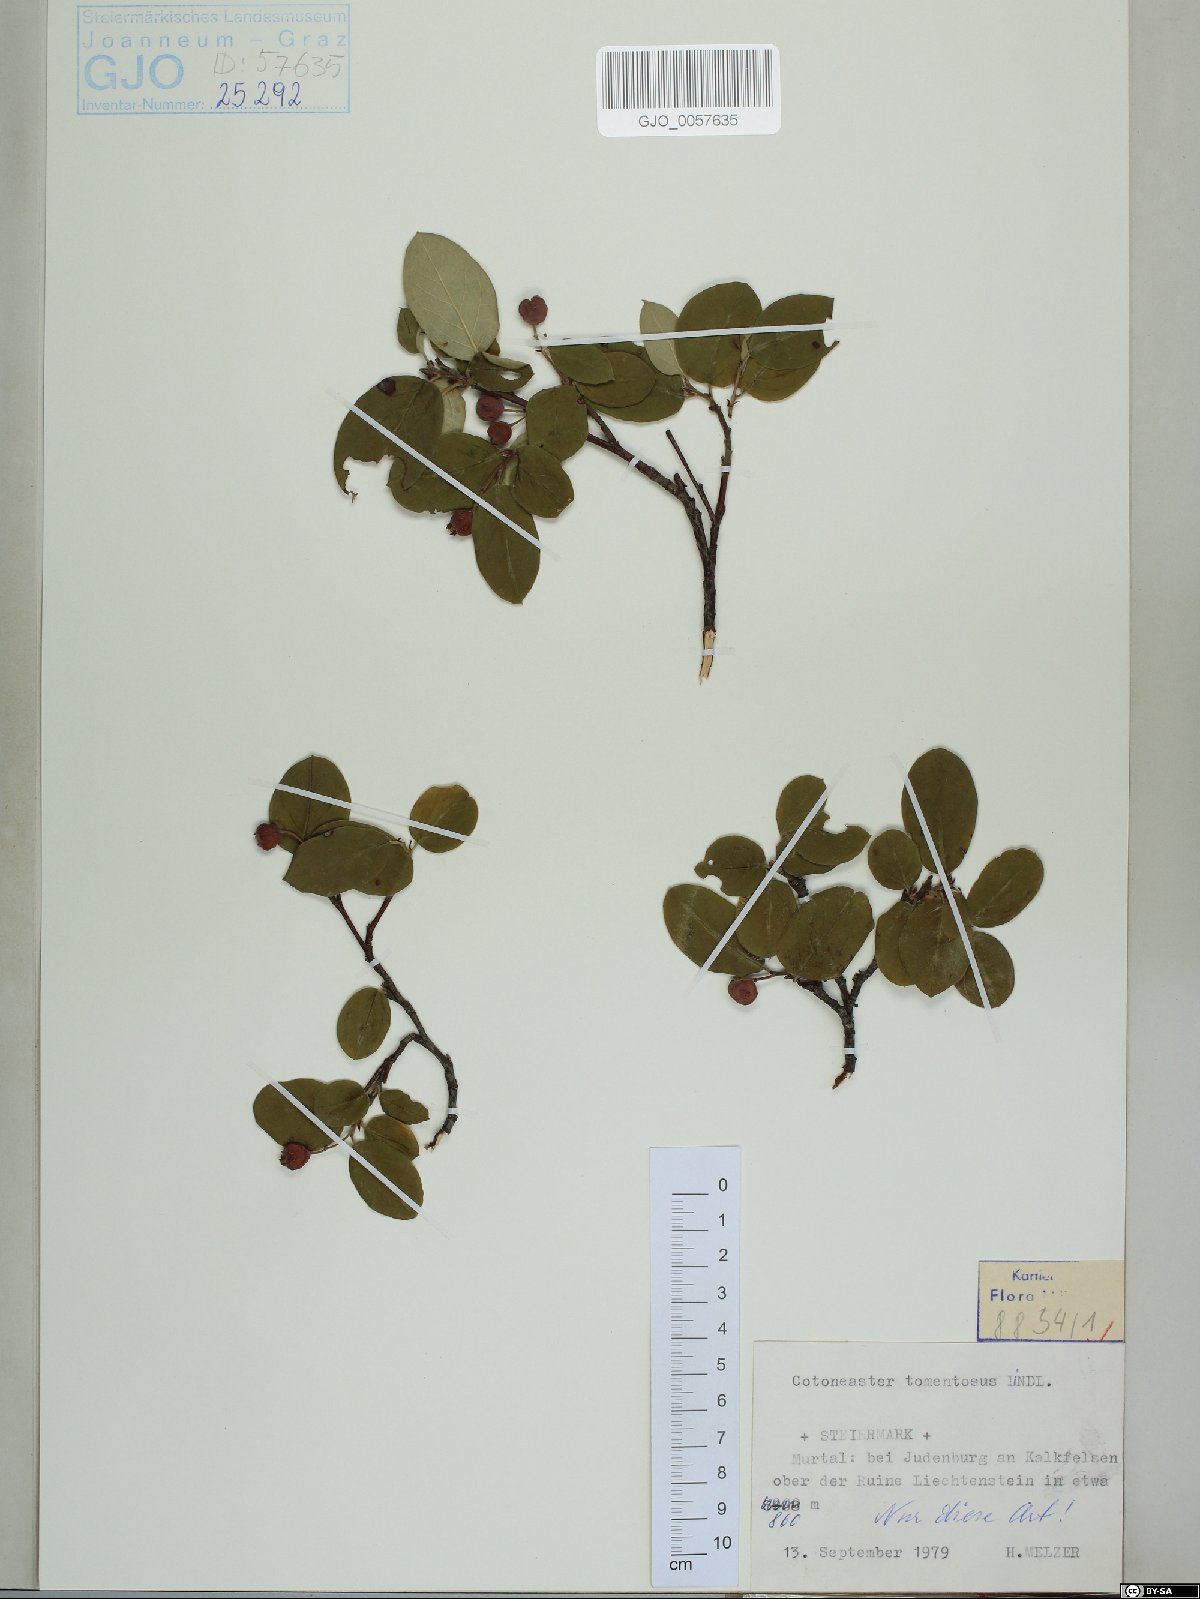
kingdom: Plantae
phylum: Tracheophyta
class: Magnoliopsida
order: Rosales
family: Rosaceae
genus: Cotoneaster
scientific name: Cotoneaster tomentosus
